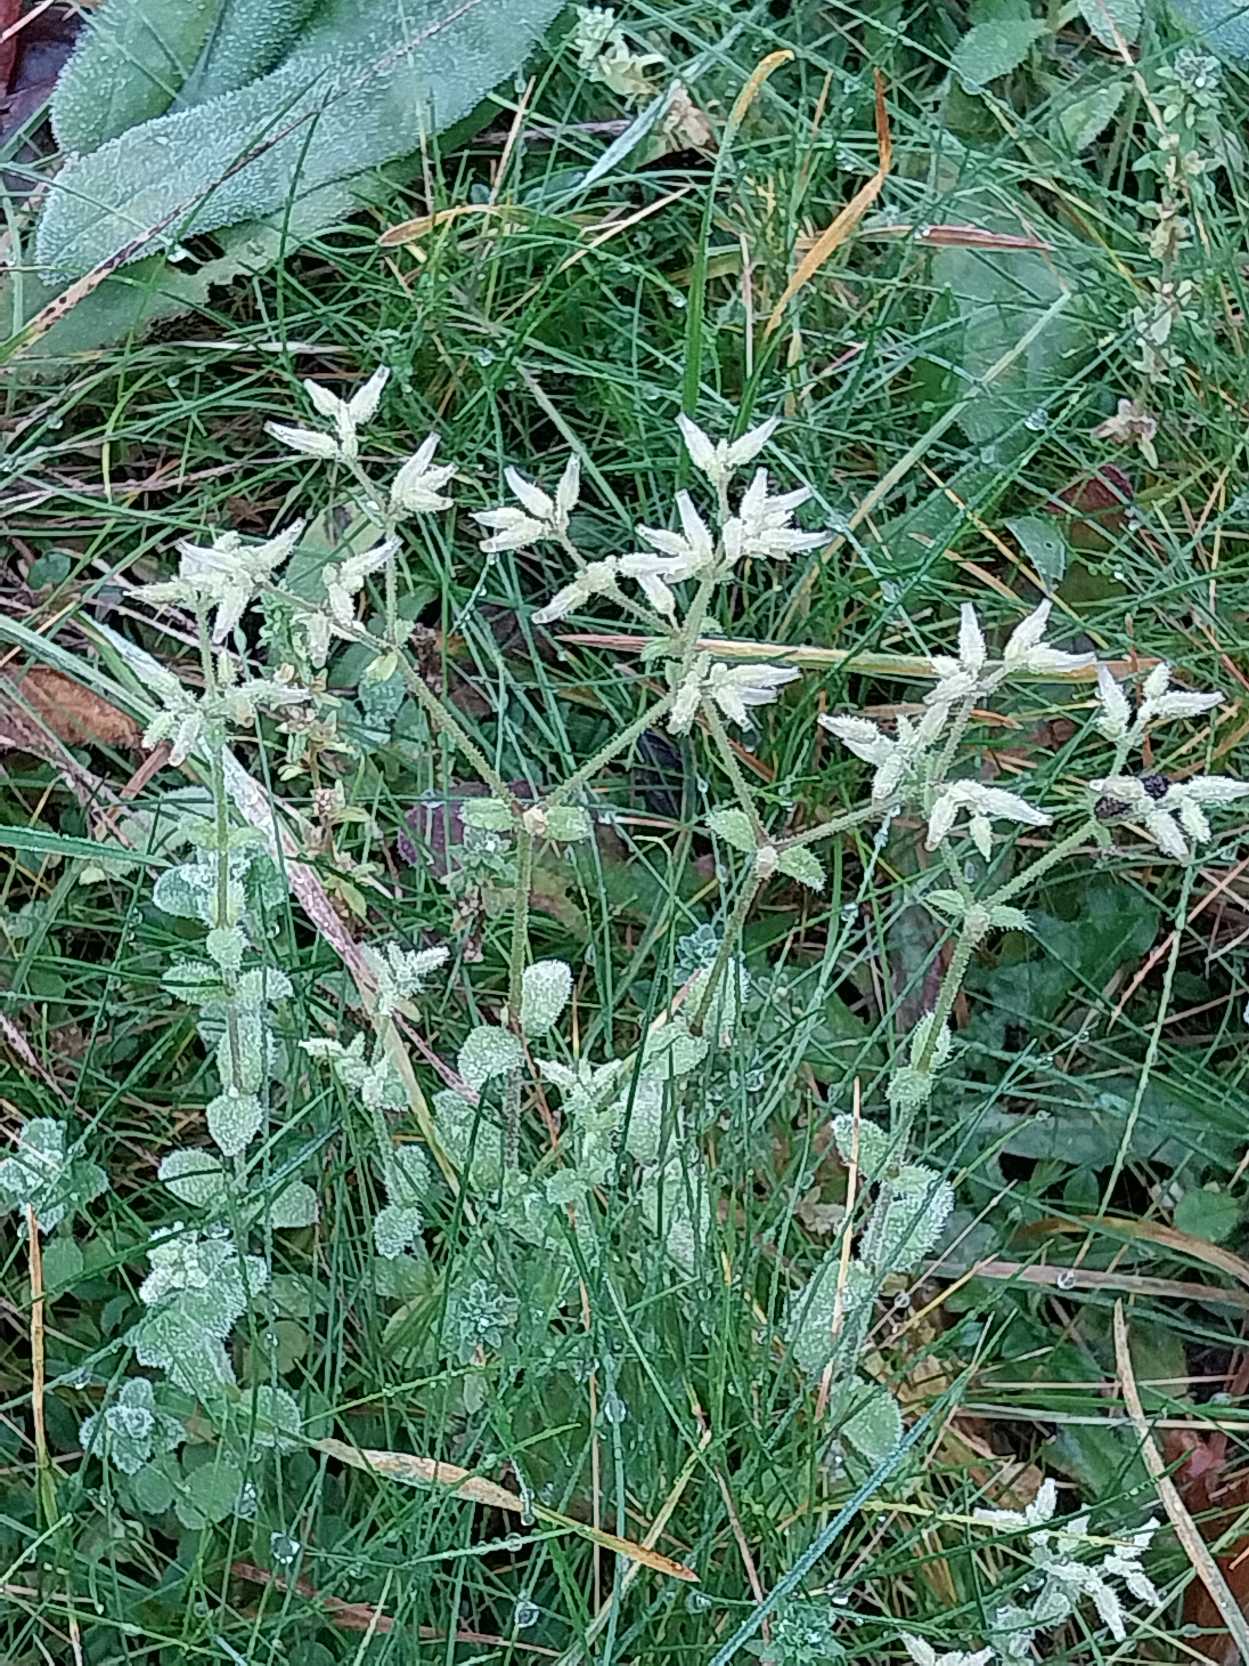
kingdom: Plantae
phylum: Tracheophyta
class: Magnoliopsida
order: Caryophyllales
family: Caryophyllaceae
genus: Cerastium
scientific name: Cerastium glomeratum
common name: Opret hønsetarm
